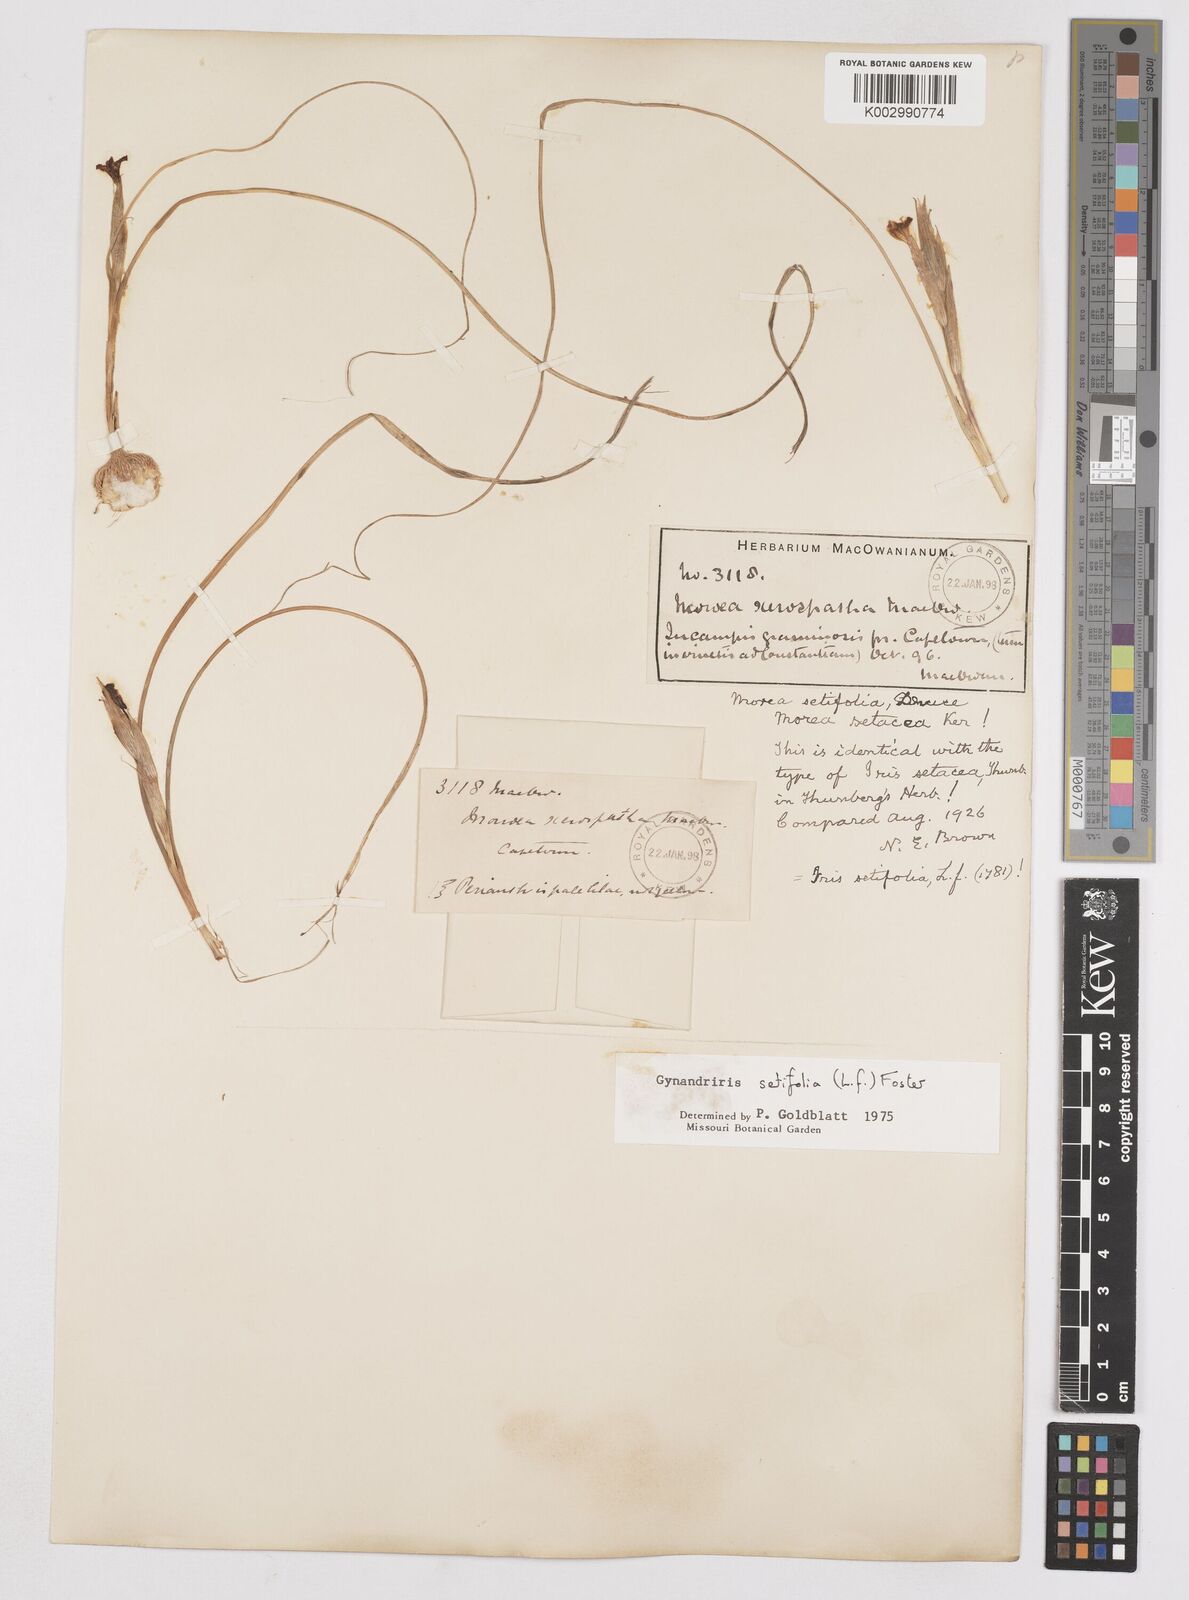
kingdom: Plantae
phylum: Tracheophyta
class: Liliopsida
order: Asparagales
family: Iridaceae
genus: Moraea
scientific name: Moraea setifolia
